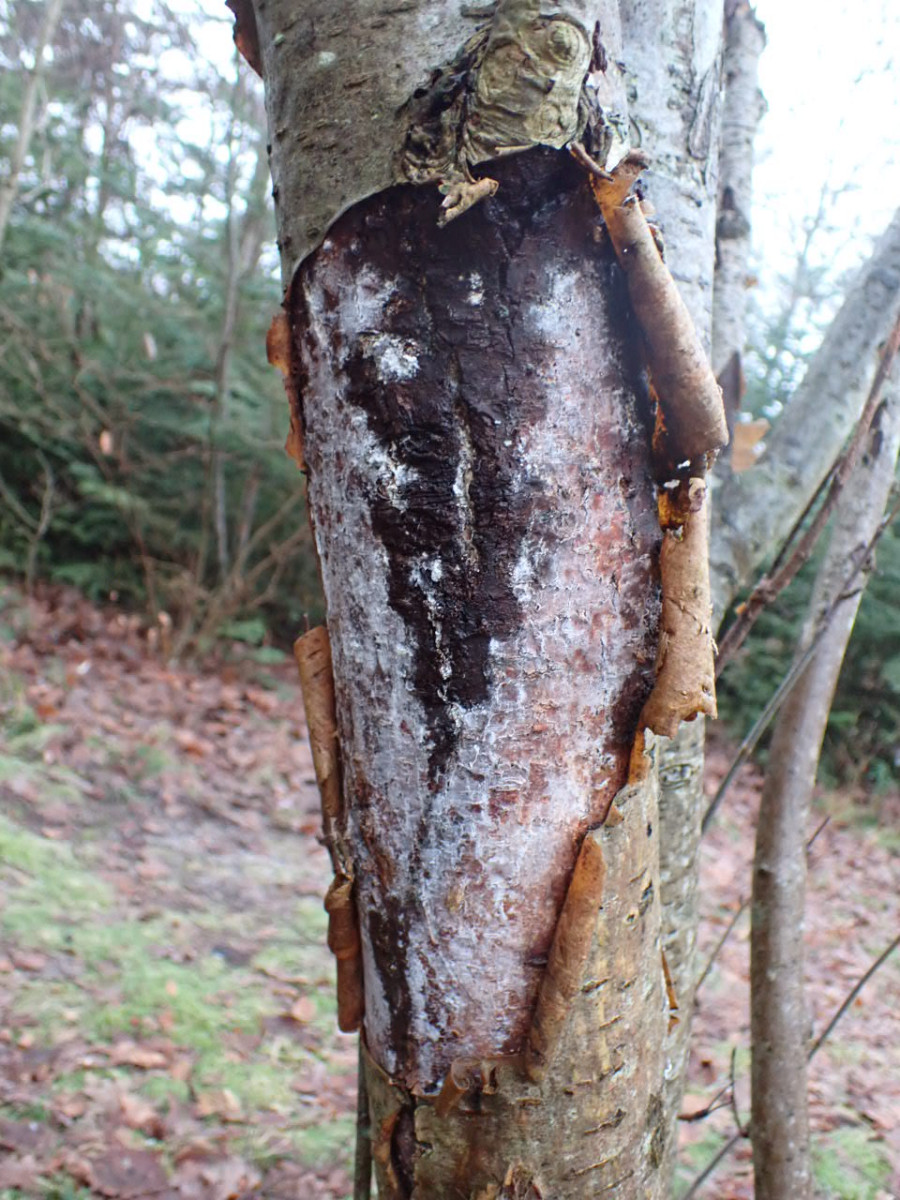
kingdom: Fungi
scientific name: Fungi
